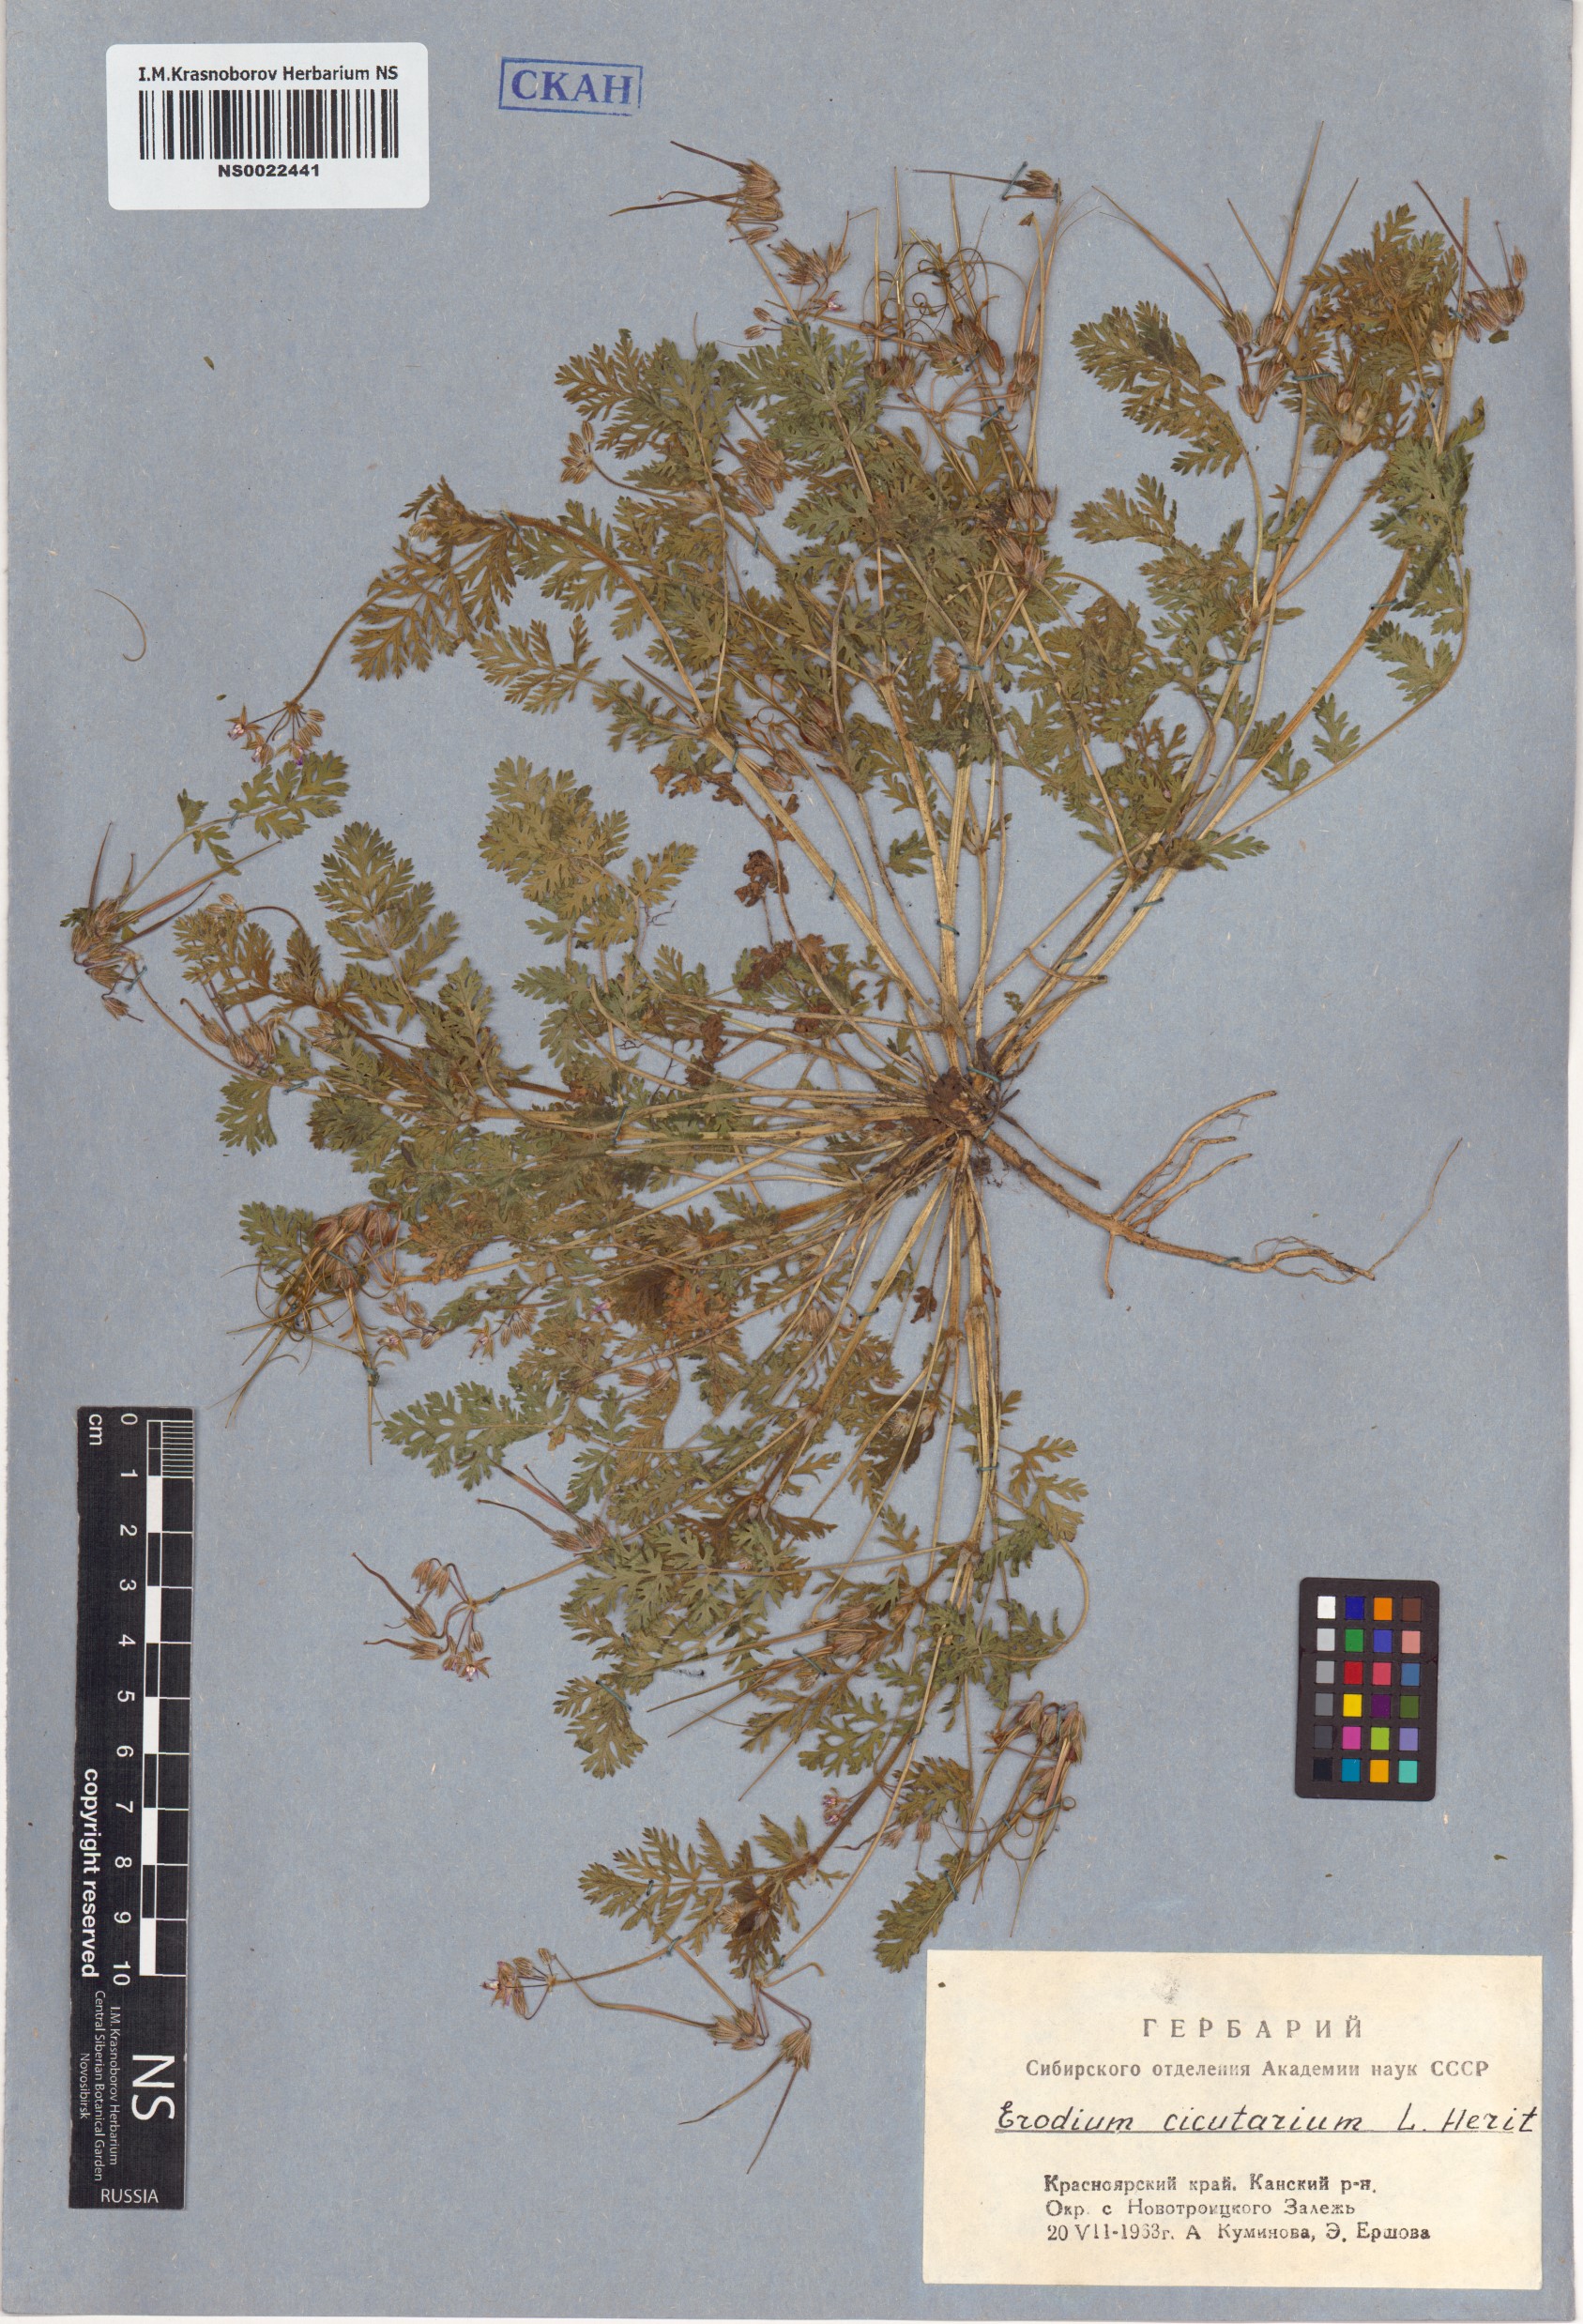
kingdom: Plantae
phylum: Tracheophyta
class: Magnoliopsida
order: Geraniales
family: Geraniaceae
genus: Erodium
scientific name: Erodium cicutarium
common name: Common stork's-bill
